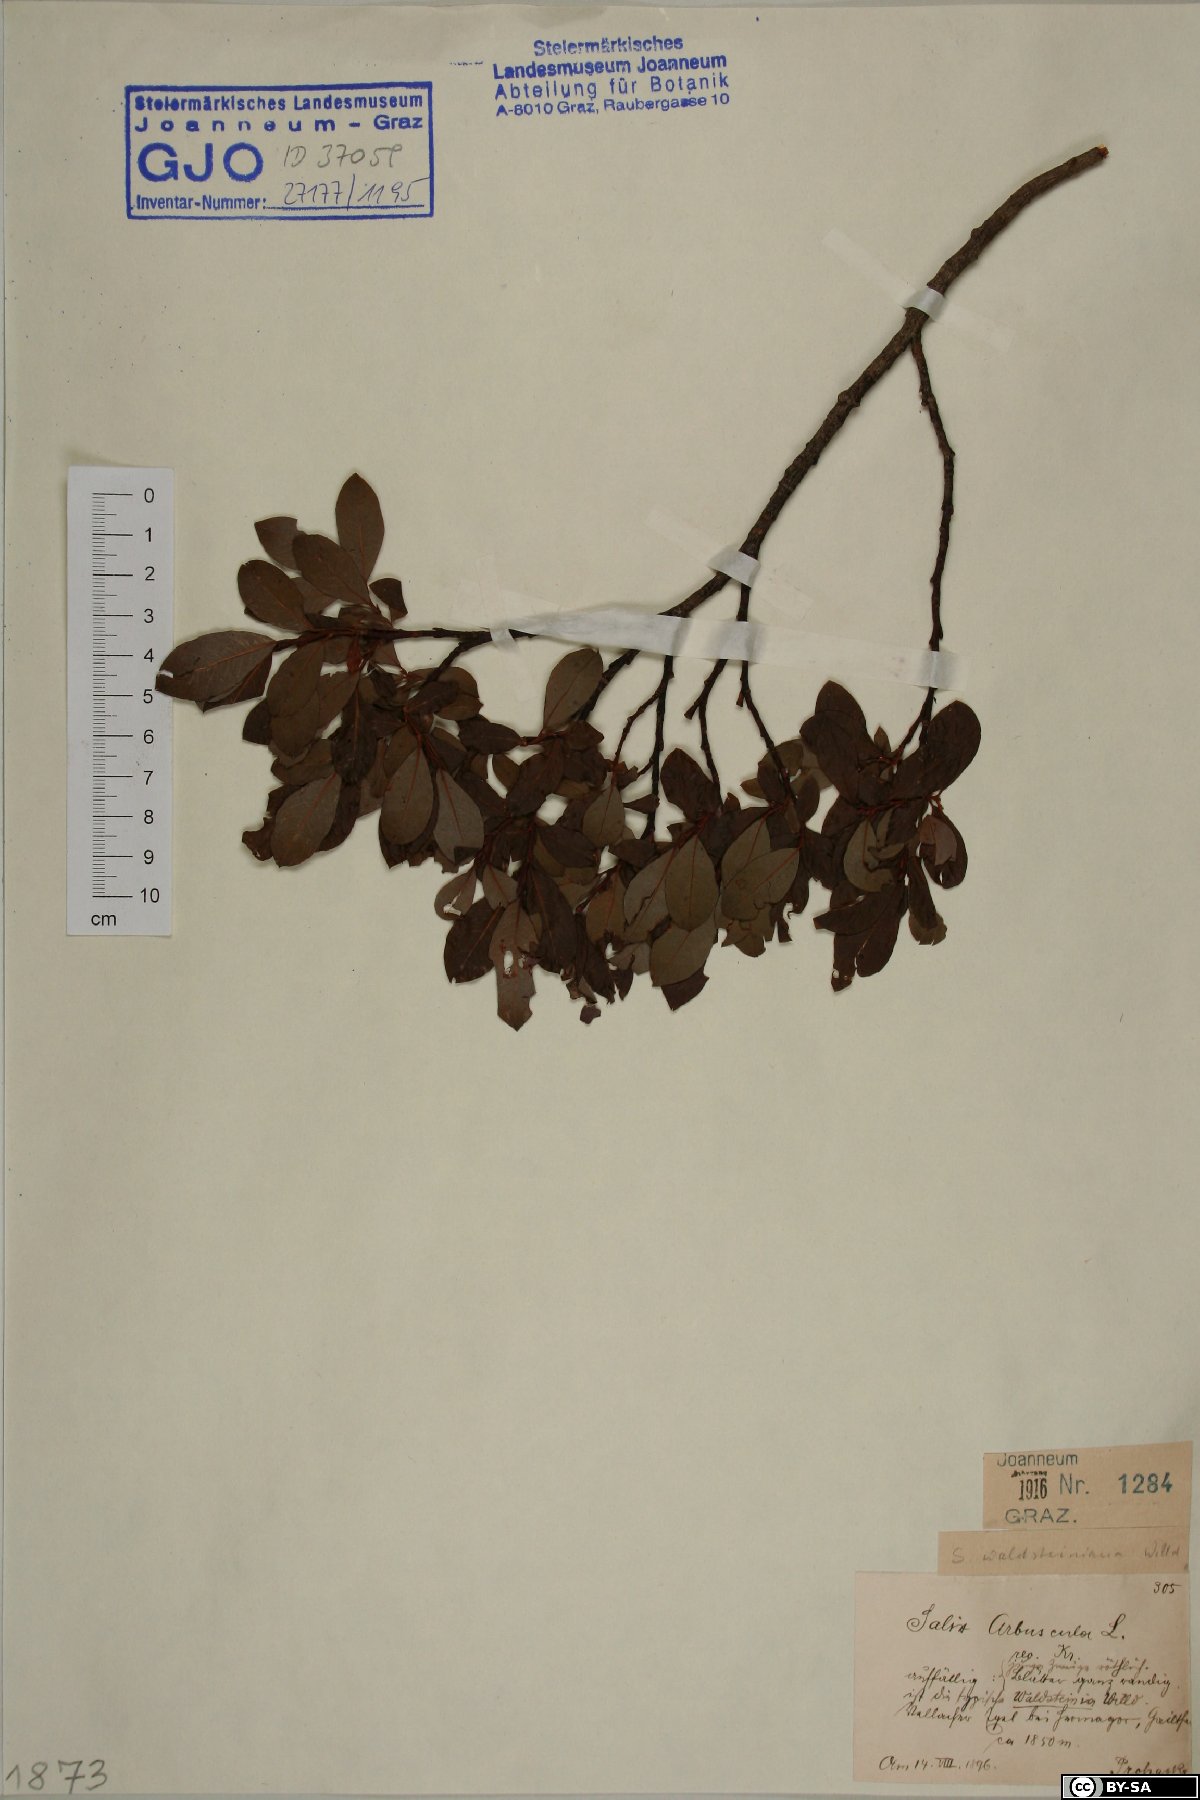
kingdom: Plantae
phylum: Tracheophyta
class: Magnoliopsida
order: Malpighiales
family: Salicaceae
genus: Salix
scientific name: Salix waldsteiniana
